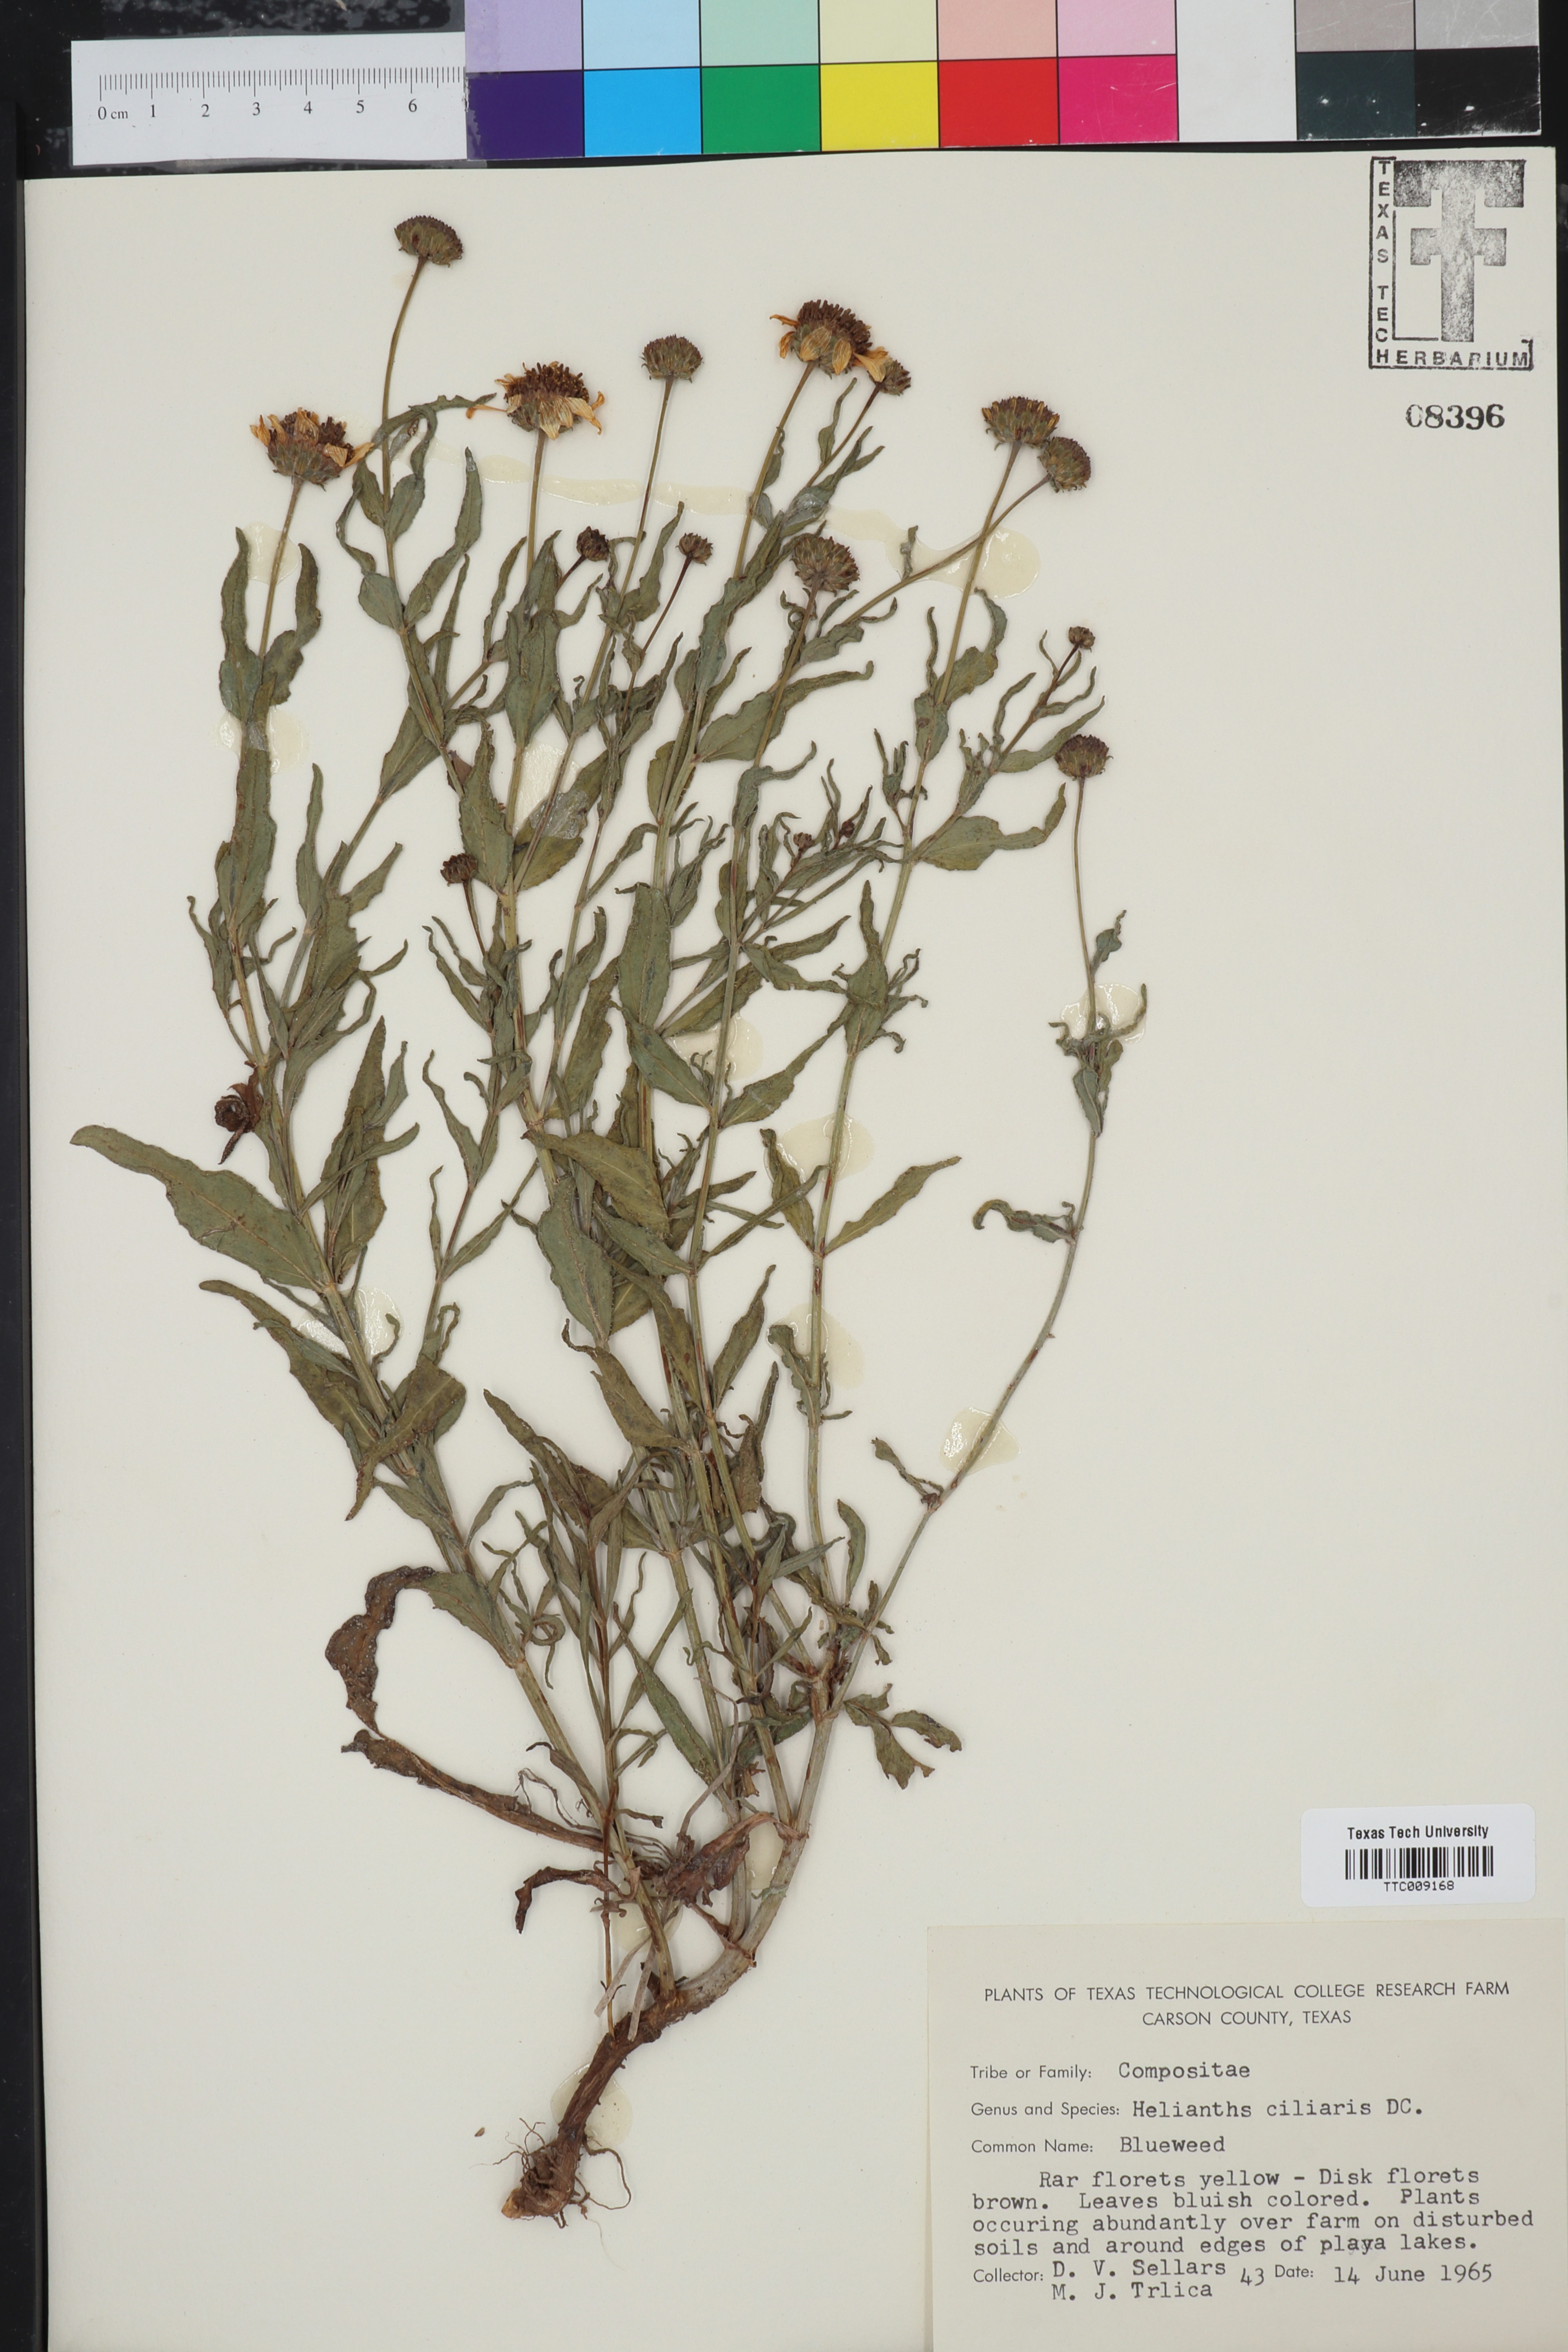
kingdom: Plantae
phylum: Tracheophyta
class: Magnoliopsida
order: Asterales
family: Asteraceae
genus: Helianthus
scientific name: Helianthus ciliaris
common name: Texas blueweed
